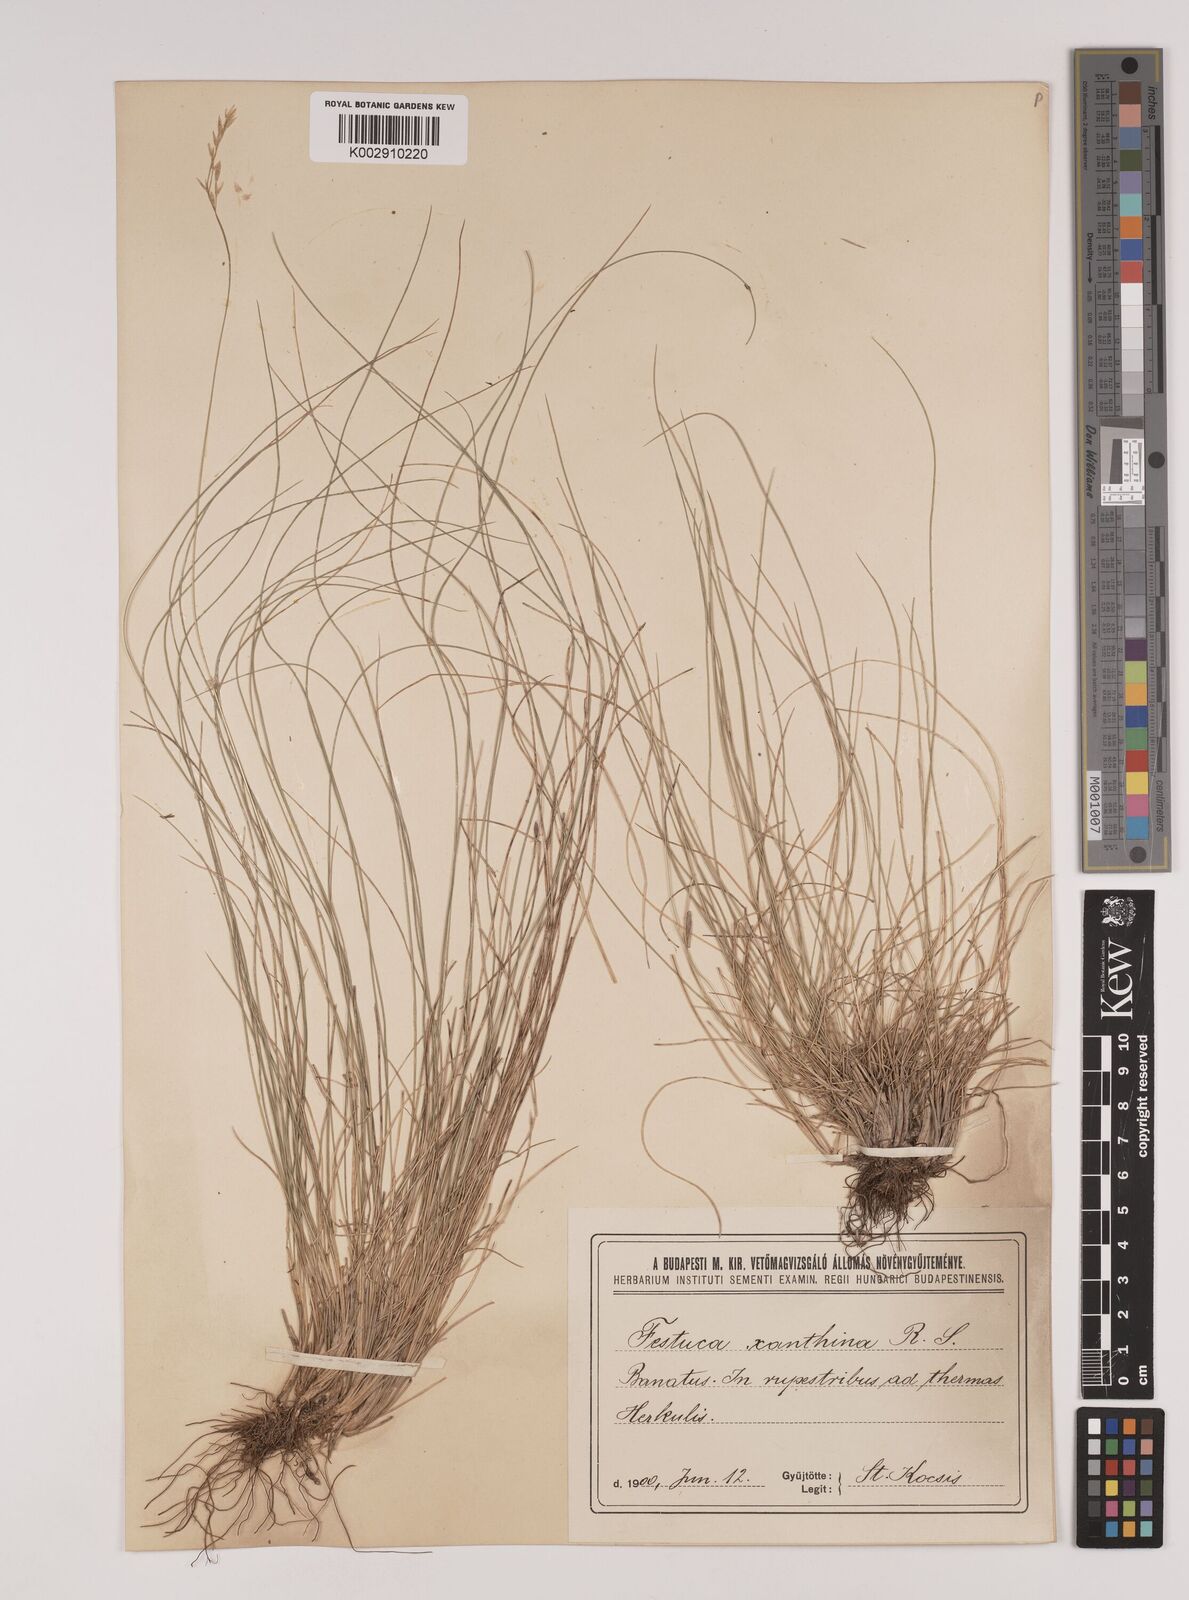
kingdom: Plantae
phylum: Tracheophyta
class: Liliopsida
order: Poales
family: Poaceae
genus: Festuca
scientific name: Festuca xanthina
